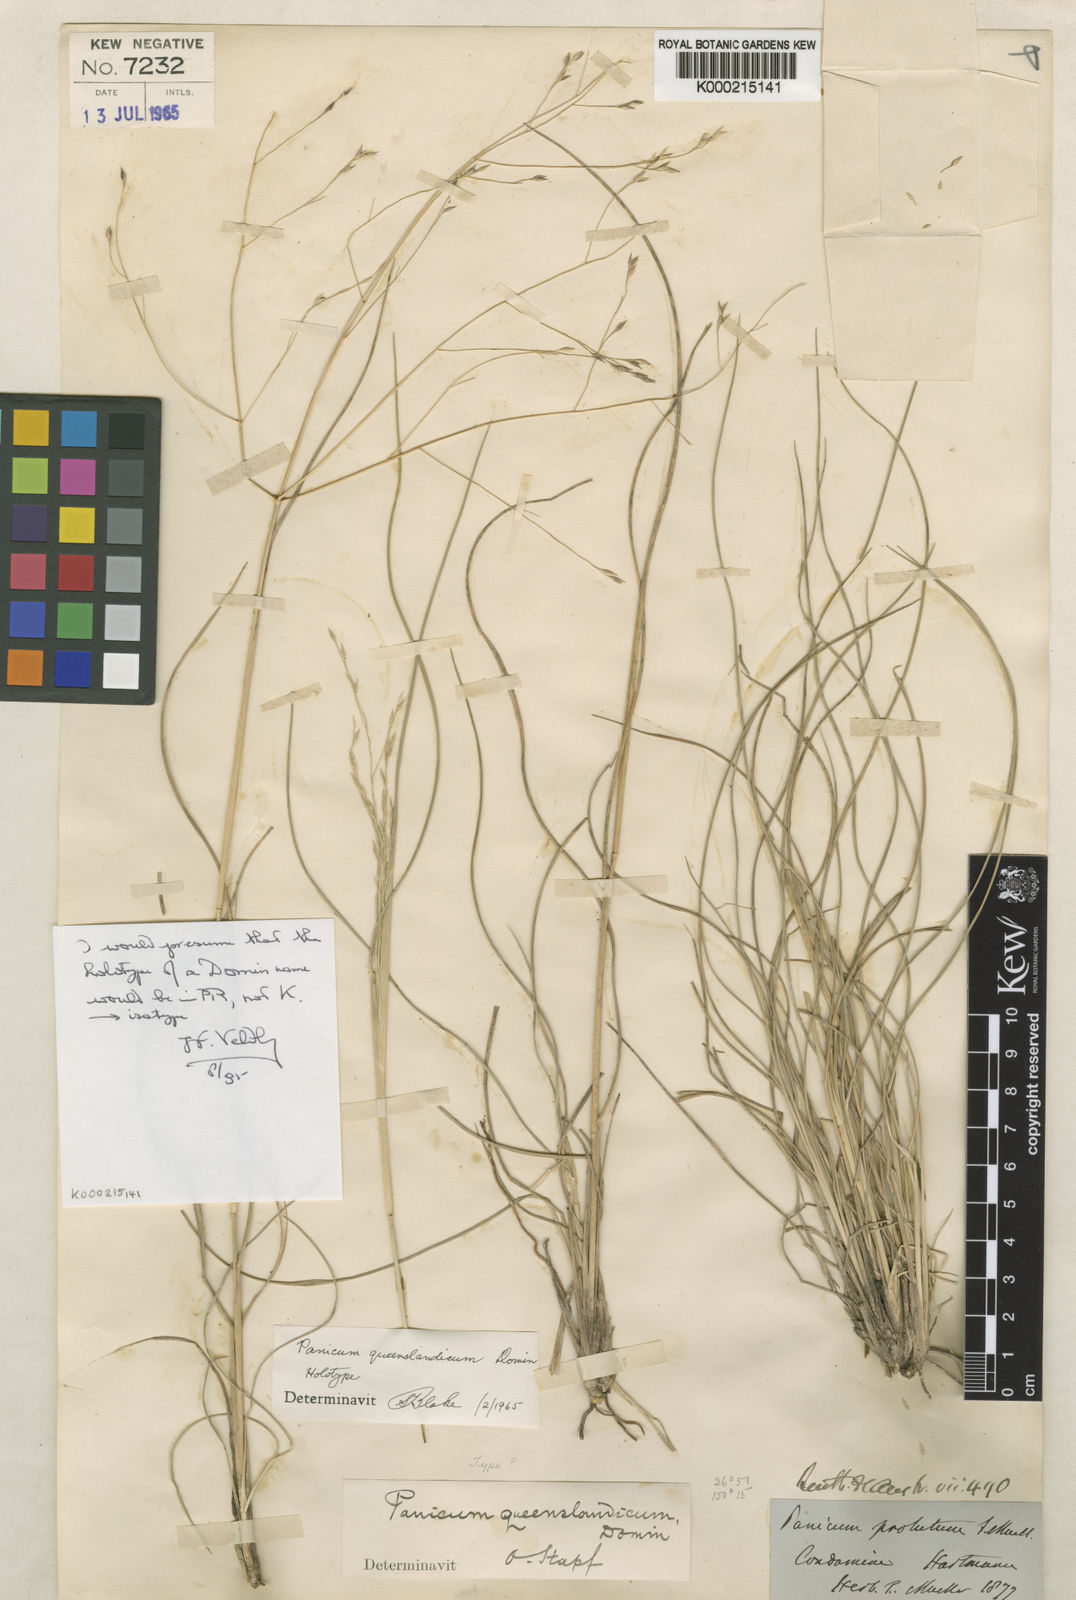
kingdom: Plantae
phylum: Tracheophyta
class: Liliopsida
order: Poales
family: Poaceae
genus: Panicum
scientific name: Panicum queenslandicum
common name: Yabila grass
